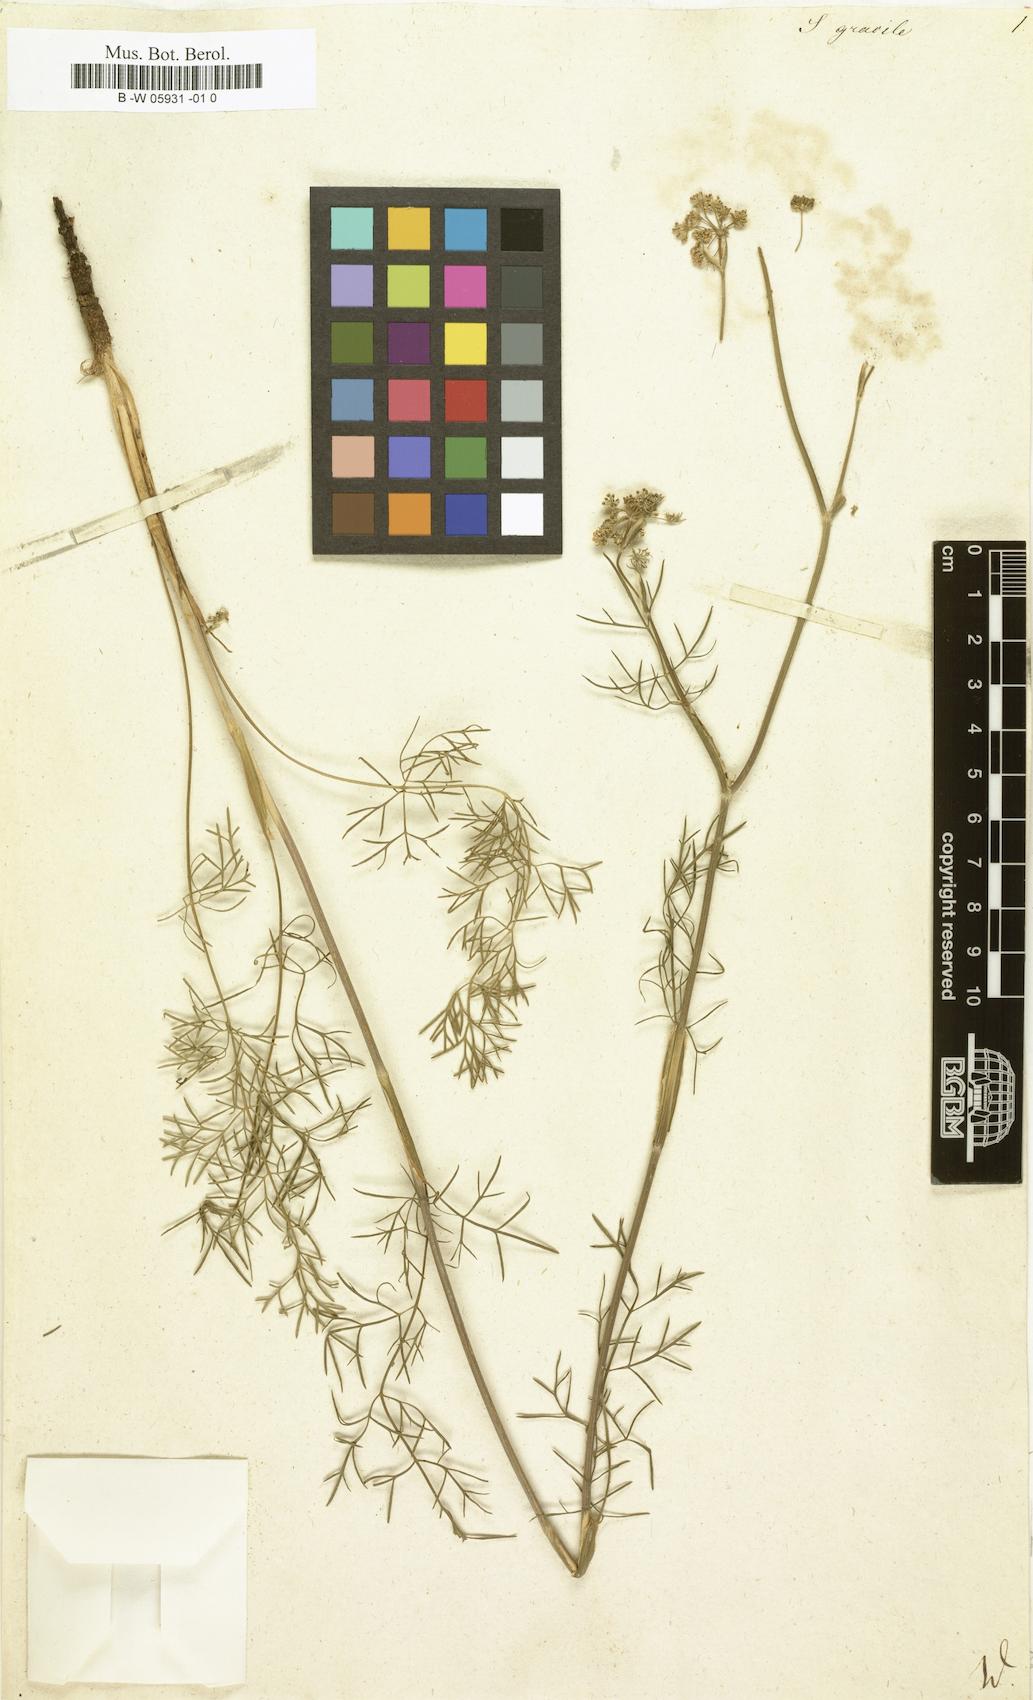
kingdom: Plantae
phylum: Tracheophyta
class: Magnoliopsida
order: Apiales
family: Apiaceae
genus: Seseli
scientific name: Seseli gracile
